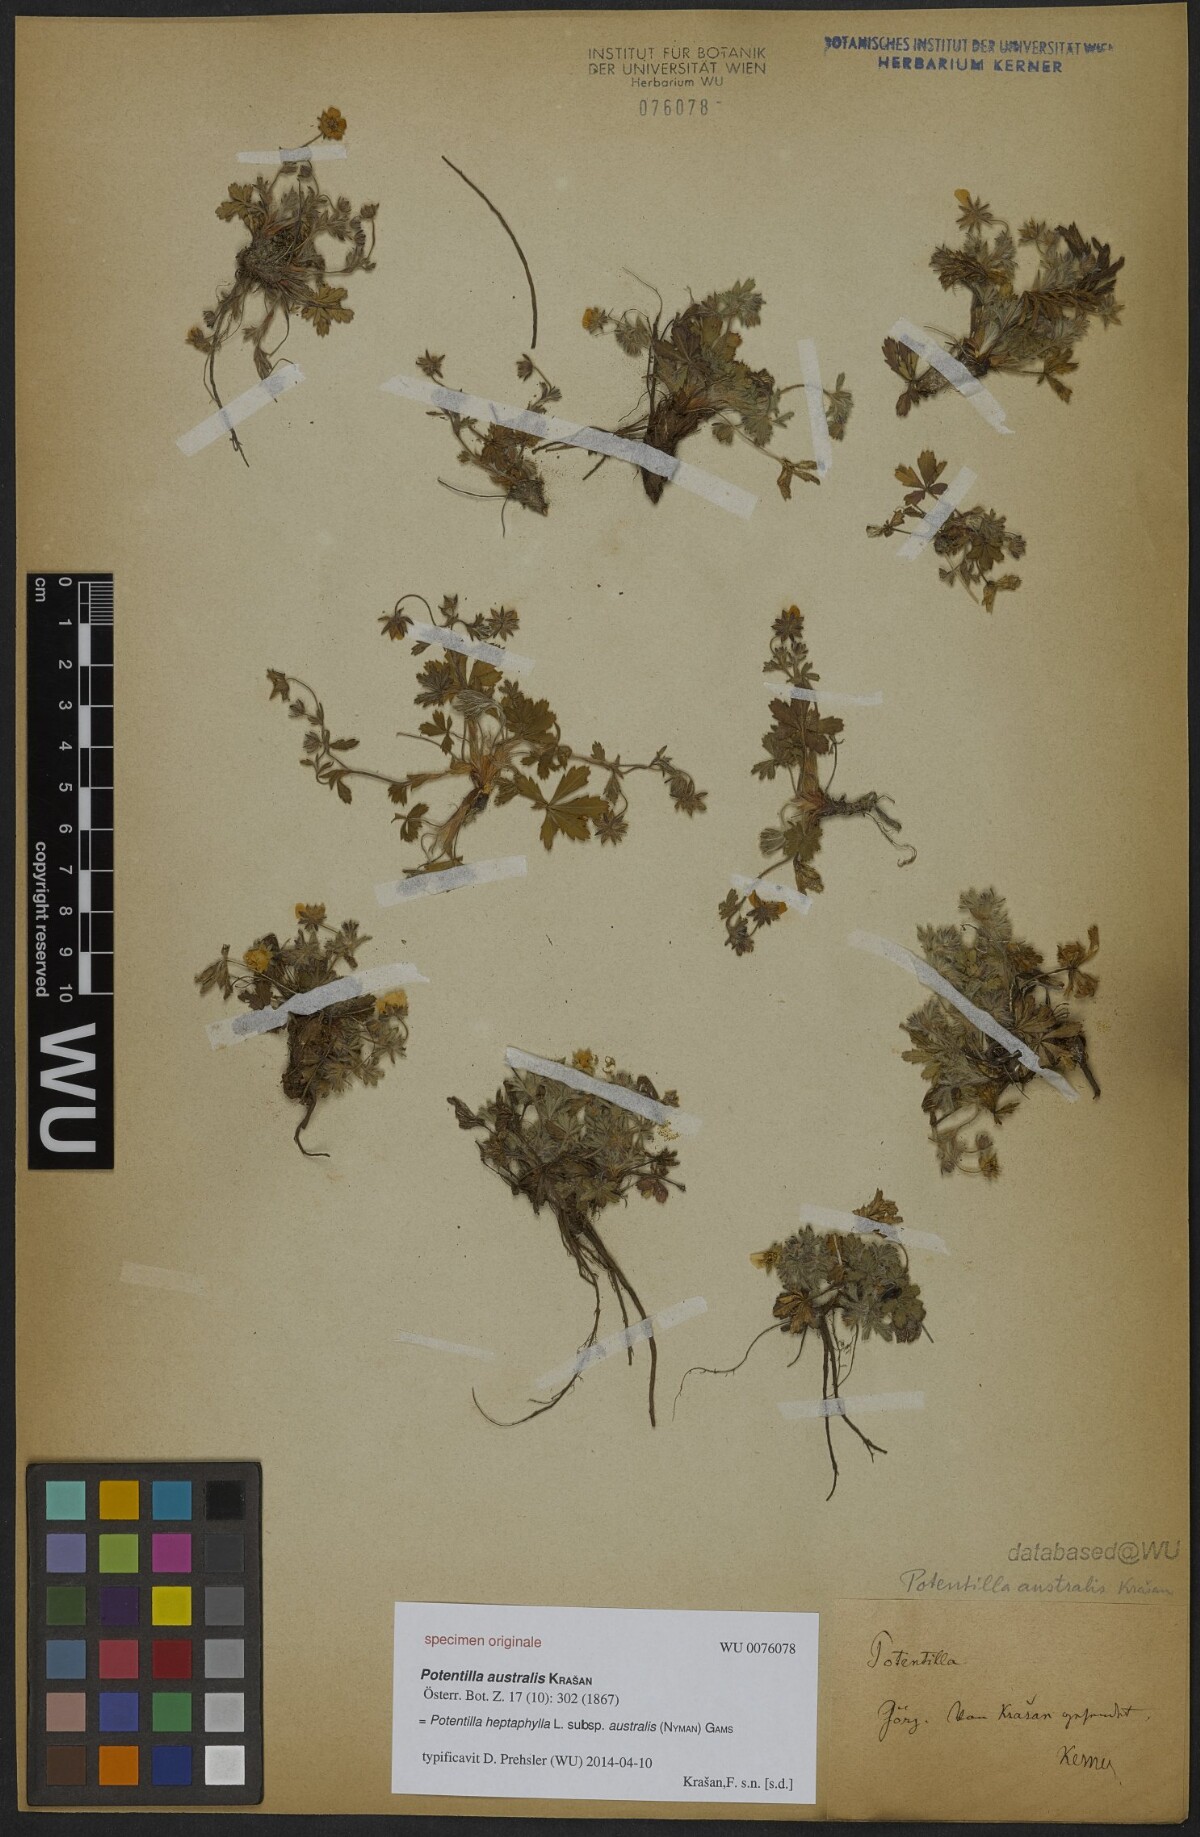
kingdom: Plantae
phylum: Tracheophyta
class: Magnoliopsida
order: Rosales
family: Rosaceae
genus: Potentilla
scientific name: Potentilla heptaphylla
